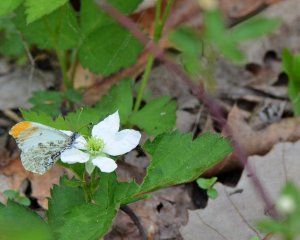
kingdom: Animalia
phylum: Arthropoda
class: Insecta
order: Lepidoptera
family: Pieridae
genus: Anthocharis
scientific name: Anthocharis midea
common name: Falcate Orangetip
